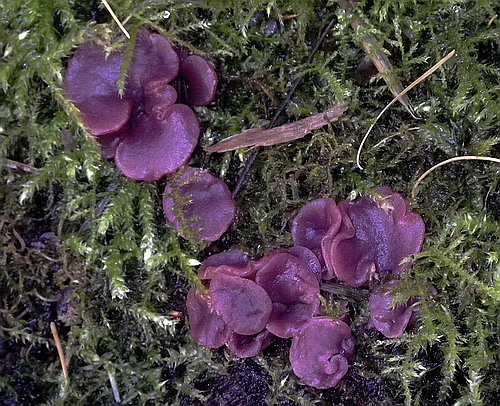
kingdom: Fungi
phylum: Ascomycota
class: Leotiomycetes
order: Helotiales
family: Gelatinodiscaceae
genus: Ascocoryne
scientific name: Ascocoryne cylichnium
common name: stor sejskive
